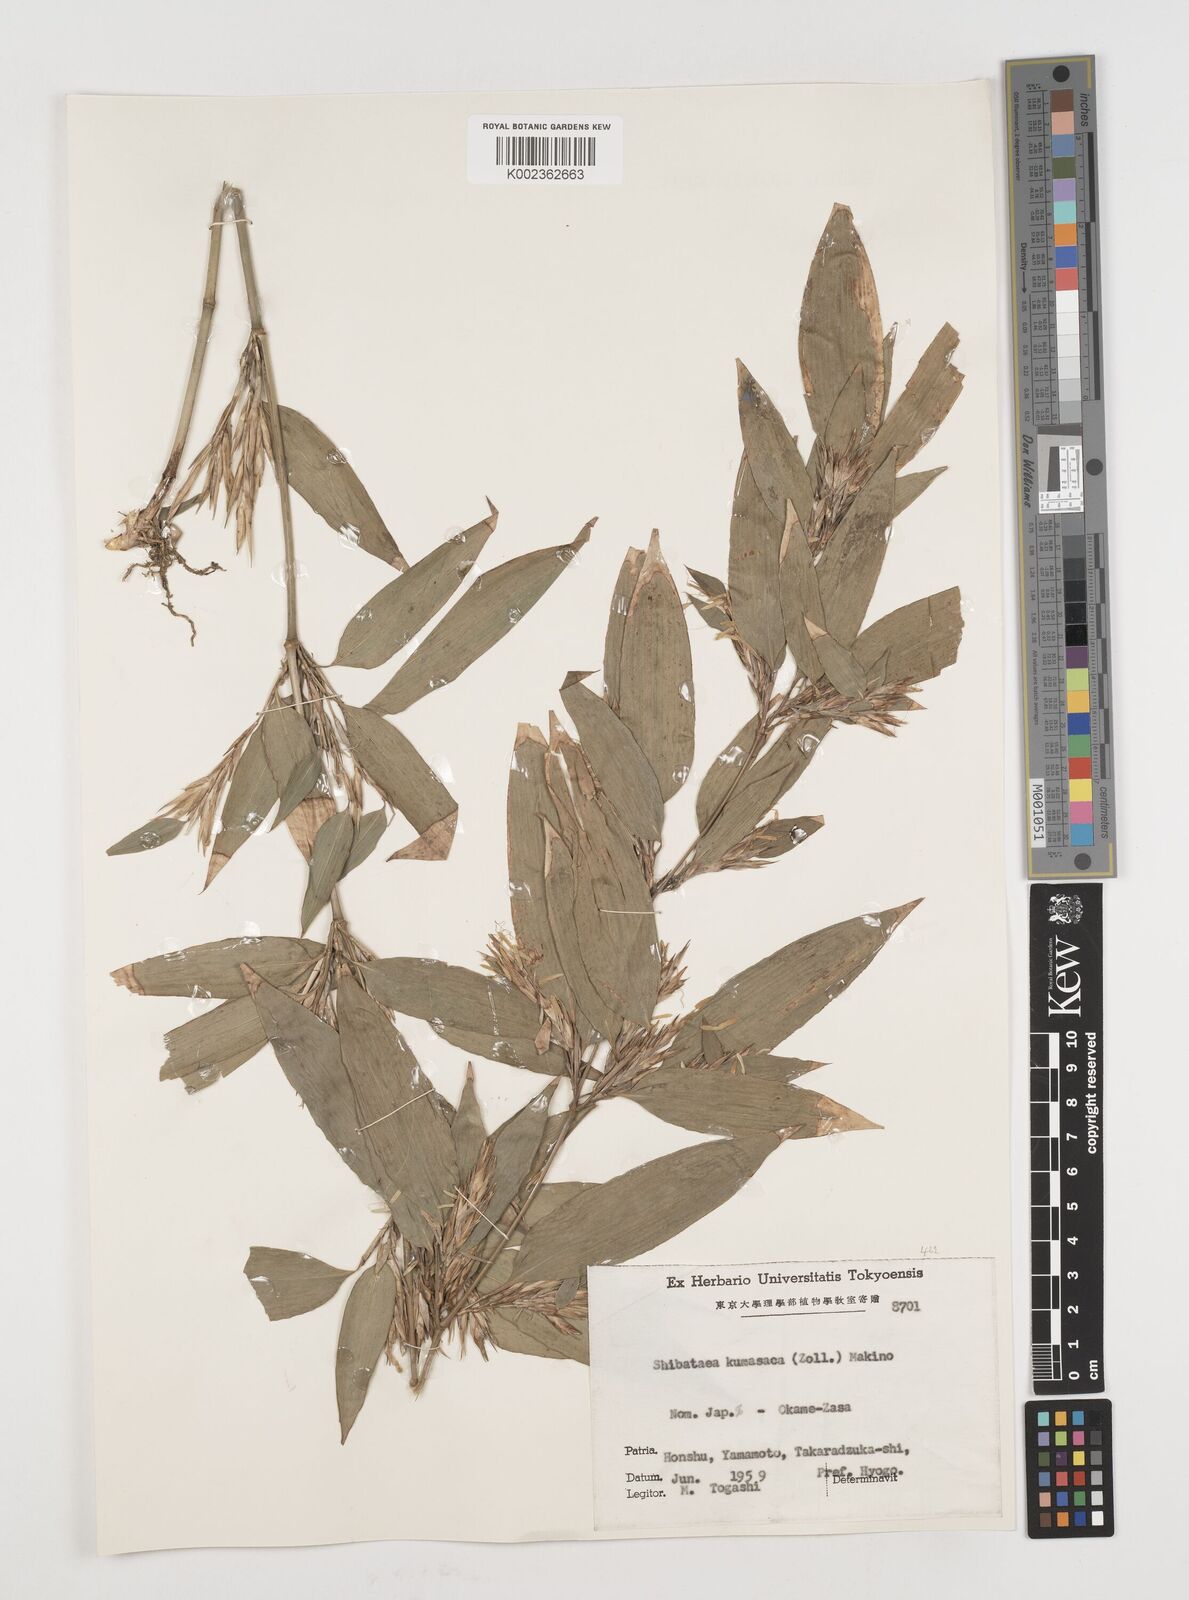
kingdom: Plantae
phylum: Tracheophyta
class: Liliopsida
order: Poales
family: Poaceae
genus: Shibataea
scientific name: Shibataea kumasasa
